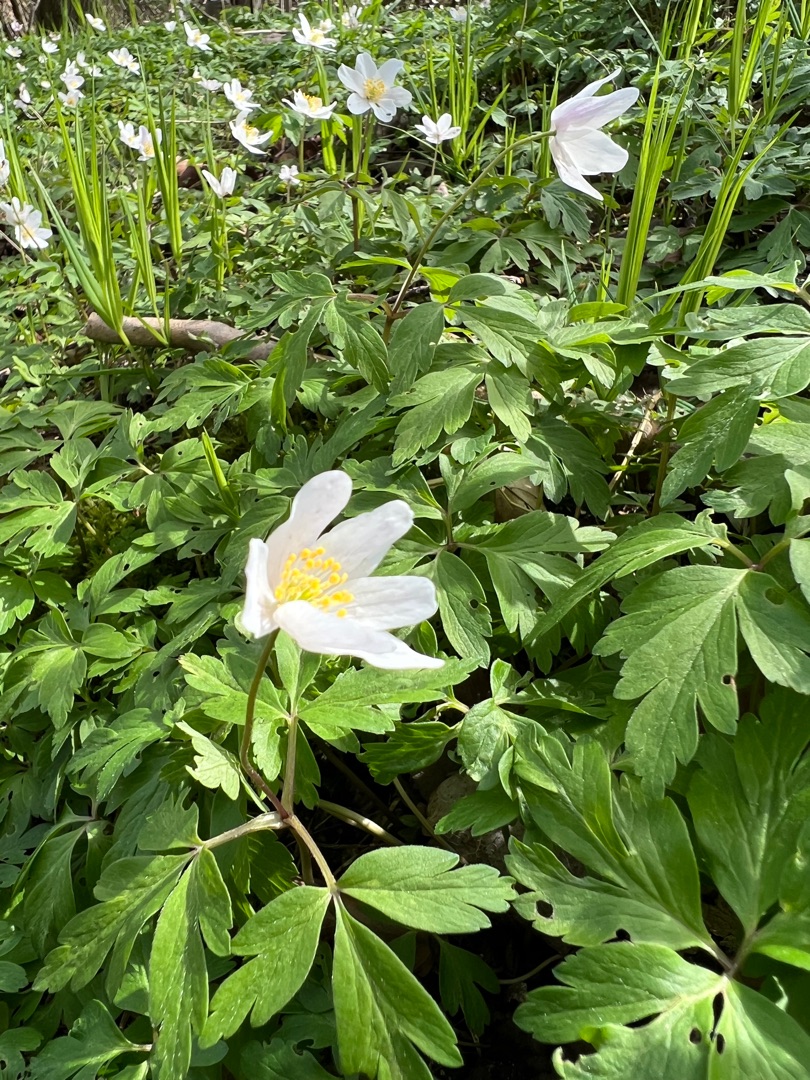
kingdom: Plantae
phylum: Tracheophyta
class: Magnoliopsida
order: Ranunculales
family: Ranunculaceae
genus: Anemone
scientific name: Anemone nemorosa
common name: Hvid anemone
